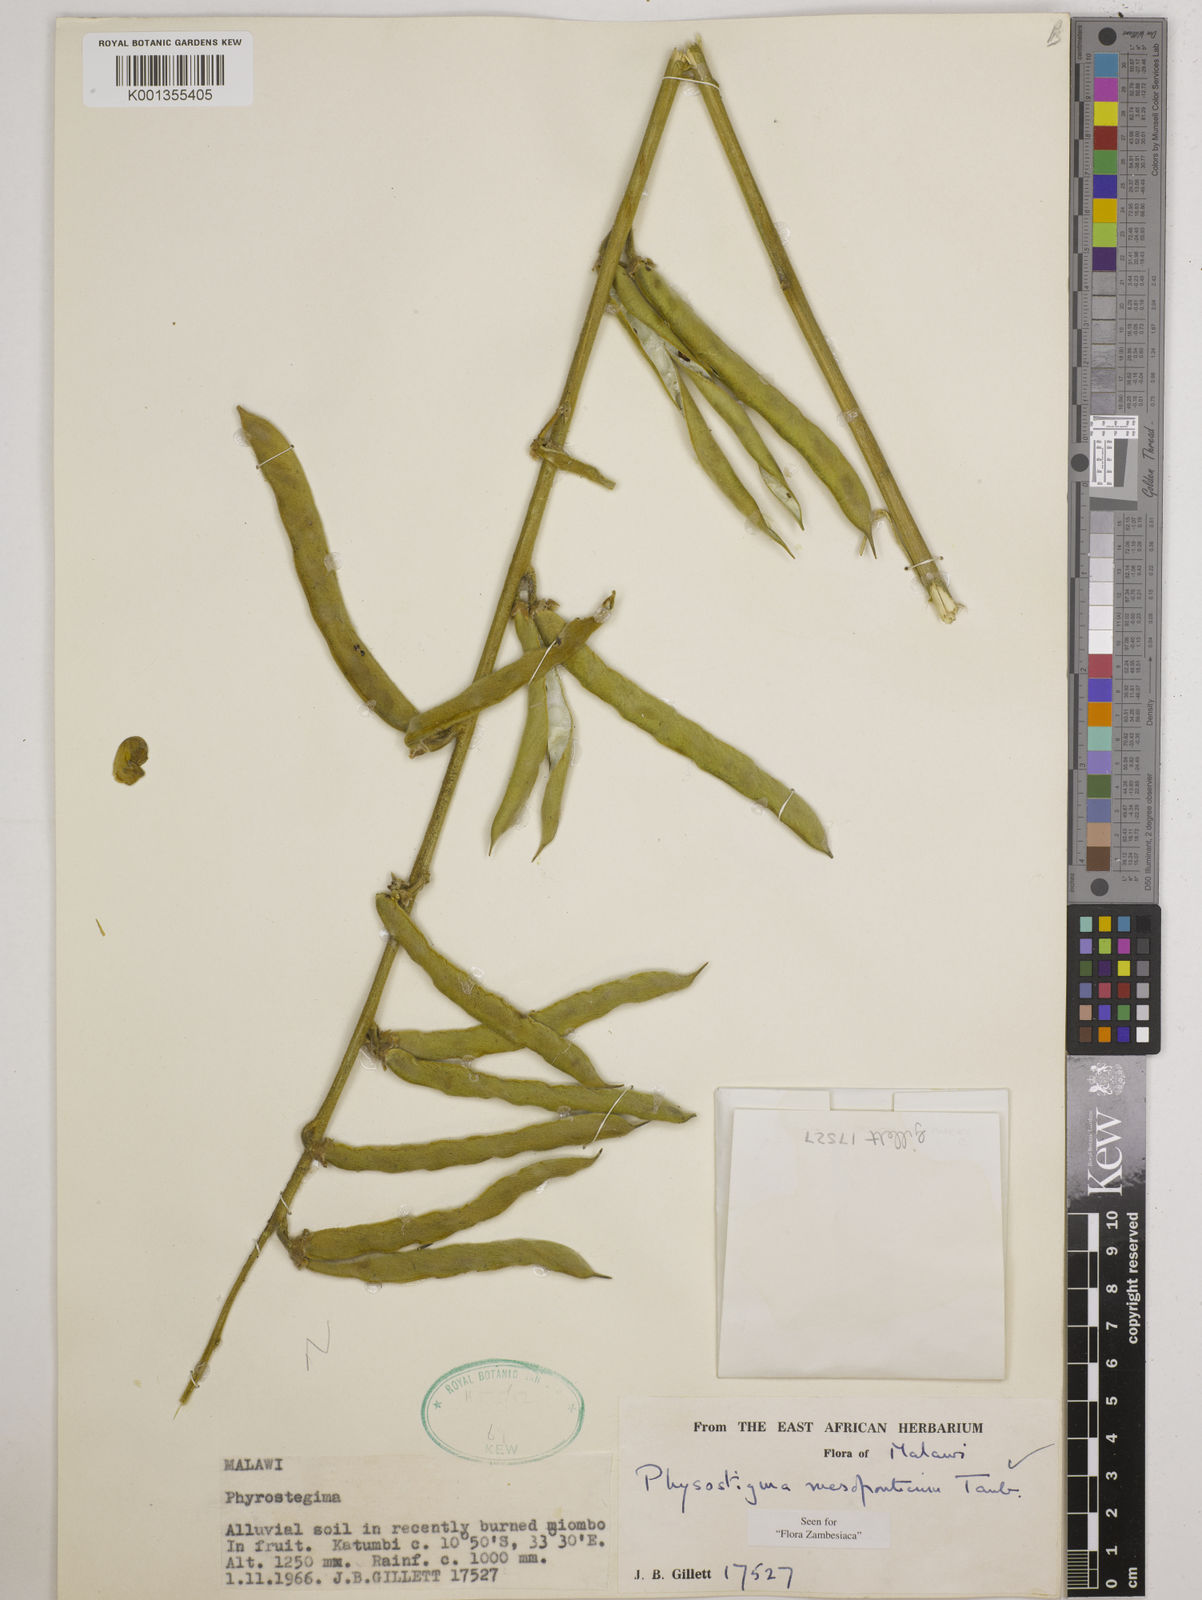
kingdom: Plantae
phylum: Tracheophyta
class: Magnoliopsida
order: Fabales
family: Fabaceae
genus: Physostigma
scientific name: Physostigma mesoponticum
